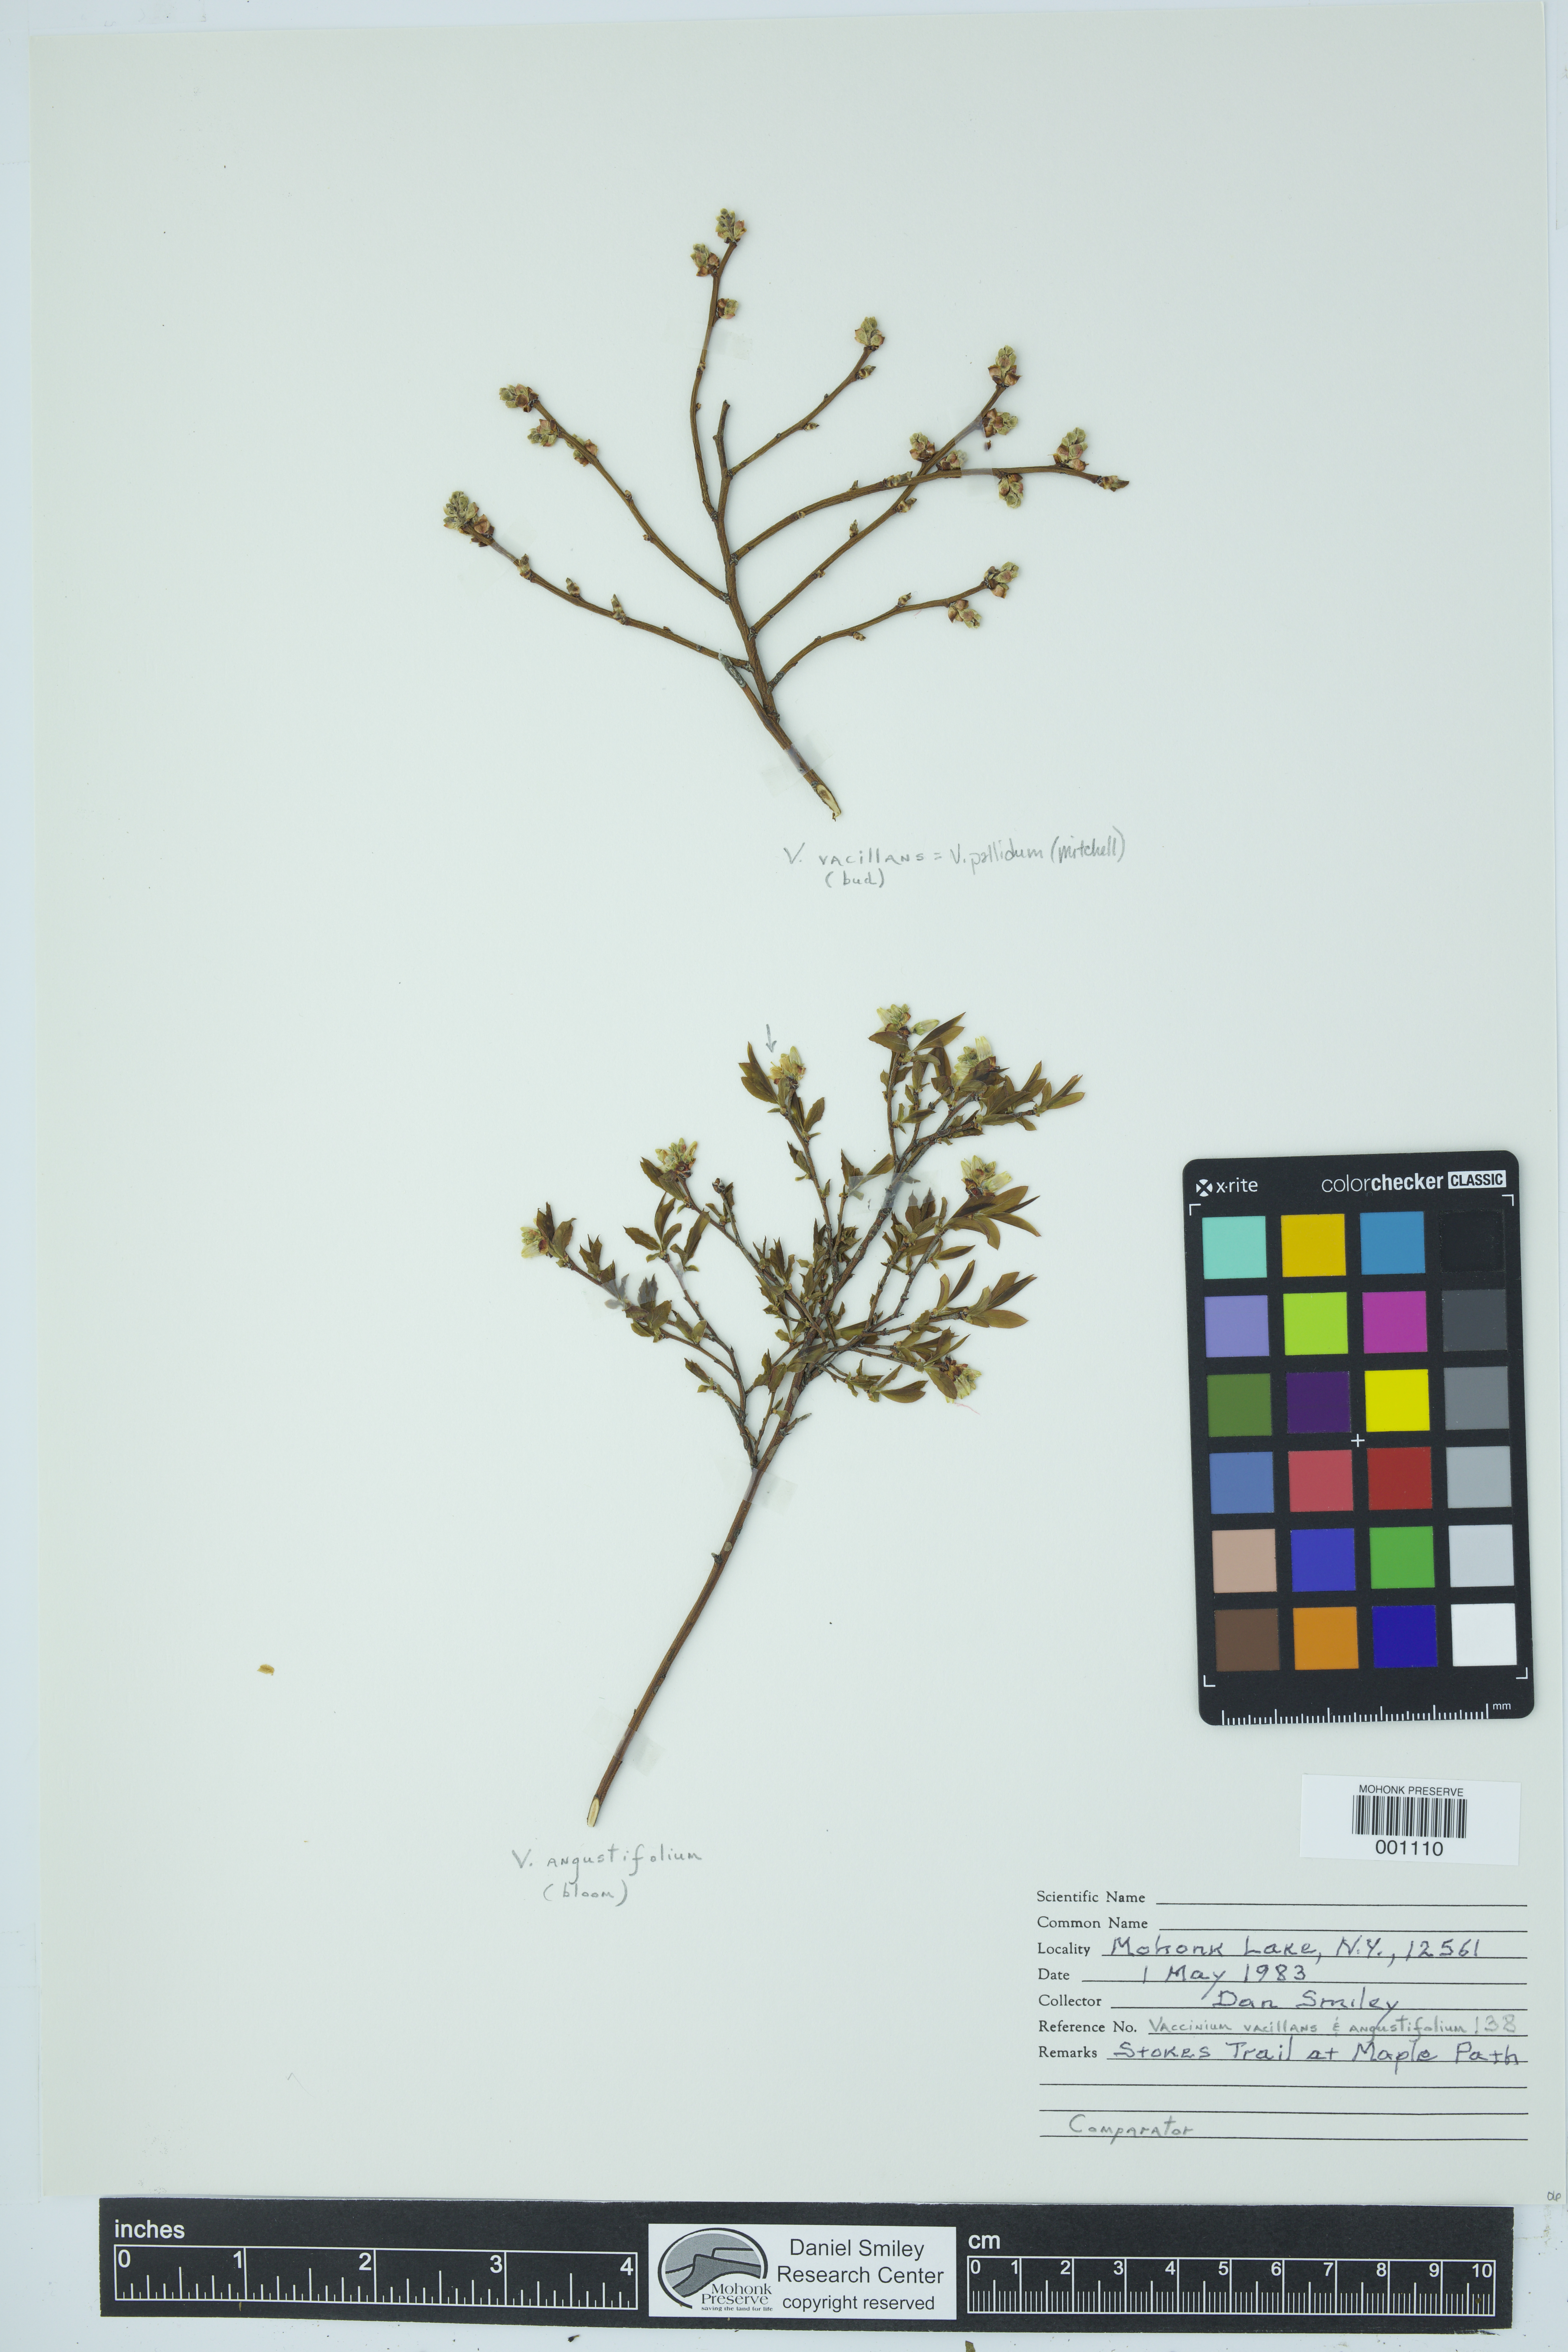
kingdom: Plantae
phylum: Tracheophyta
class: Magnoliopsida
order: Ericales
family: Ericaceae
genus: Vaccinium
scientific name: Vaccinium pallidum
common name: Blue ridge blueberry
